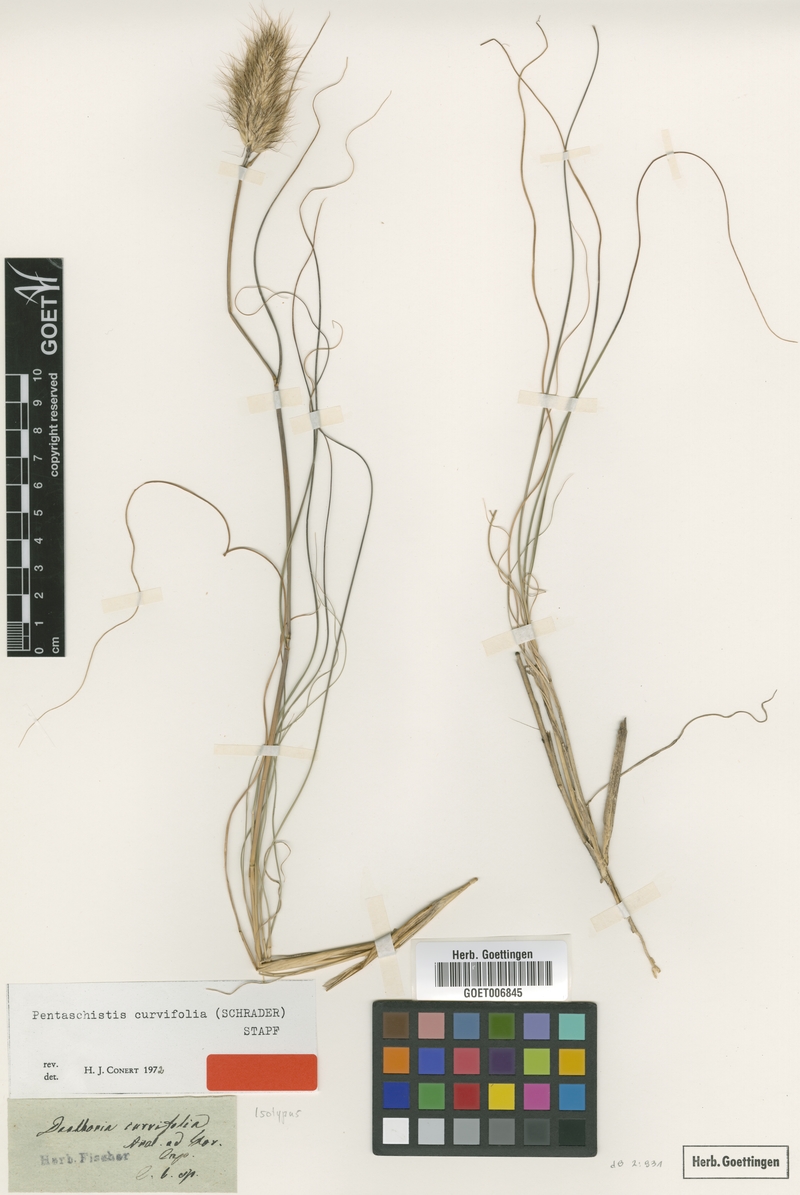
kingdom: Plantae
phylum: Tracheophyta
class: Liliopsida
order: Poales
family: Poaceae
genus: Pentameris
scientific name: Pentameris curvifolia
